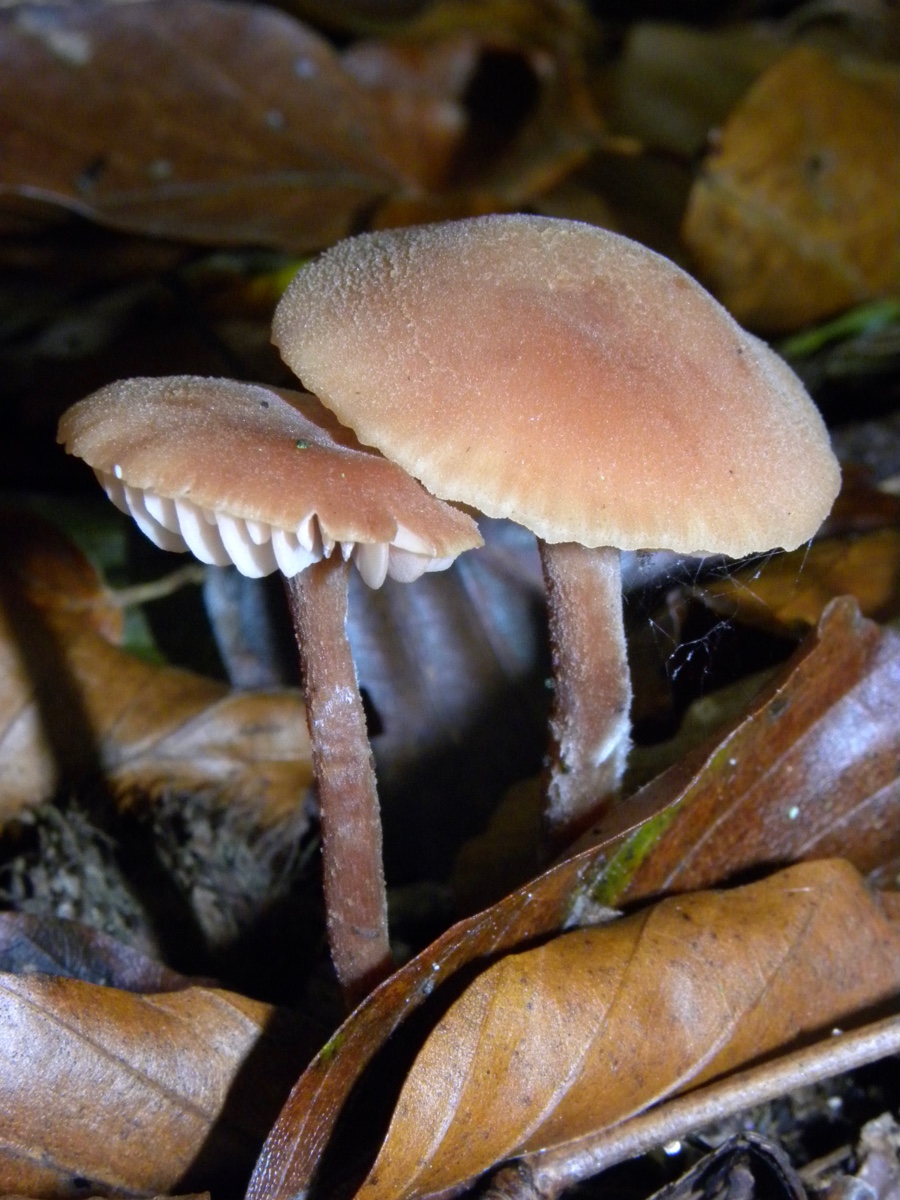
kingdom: Fungi
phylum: Basidiomycota
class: Agaricomycetes
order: Agaricales
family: Hydnangiaceae
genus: Laccaria
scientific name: Laccaria laccata
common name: rød ametysthat
